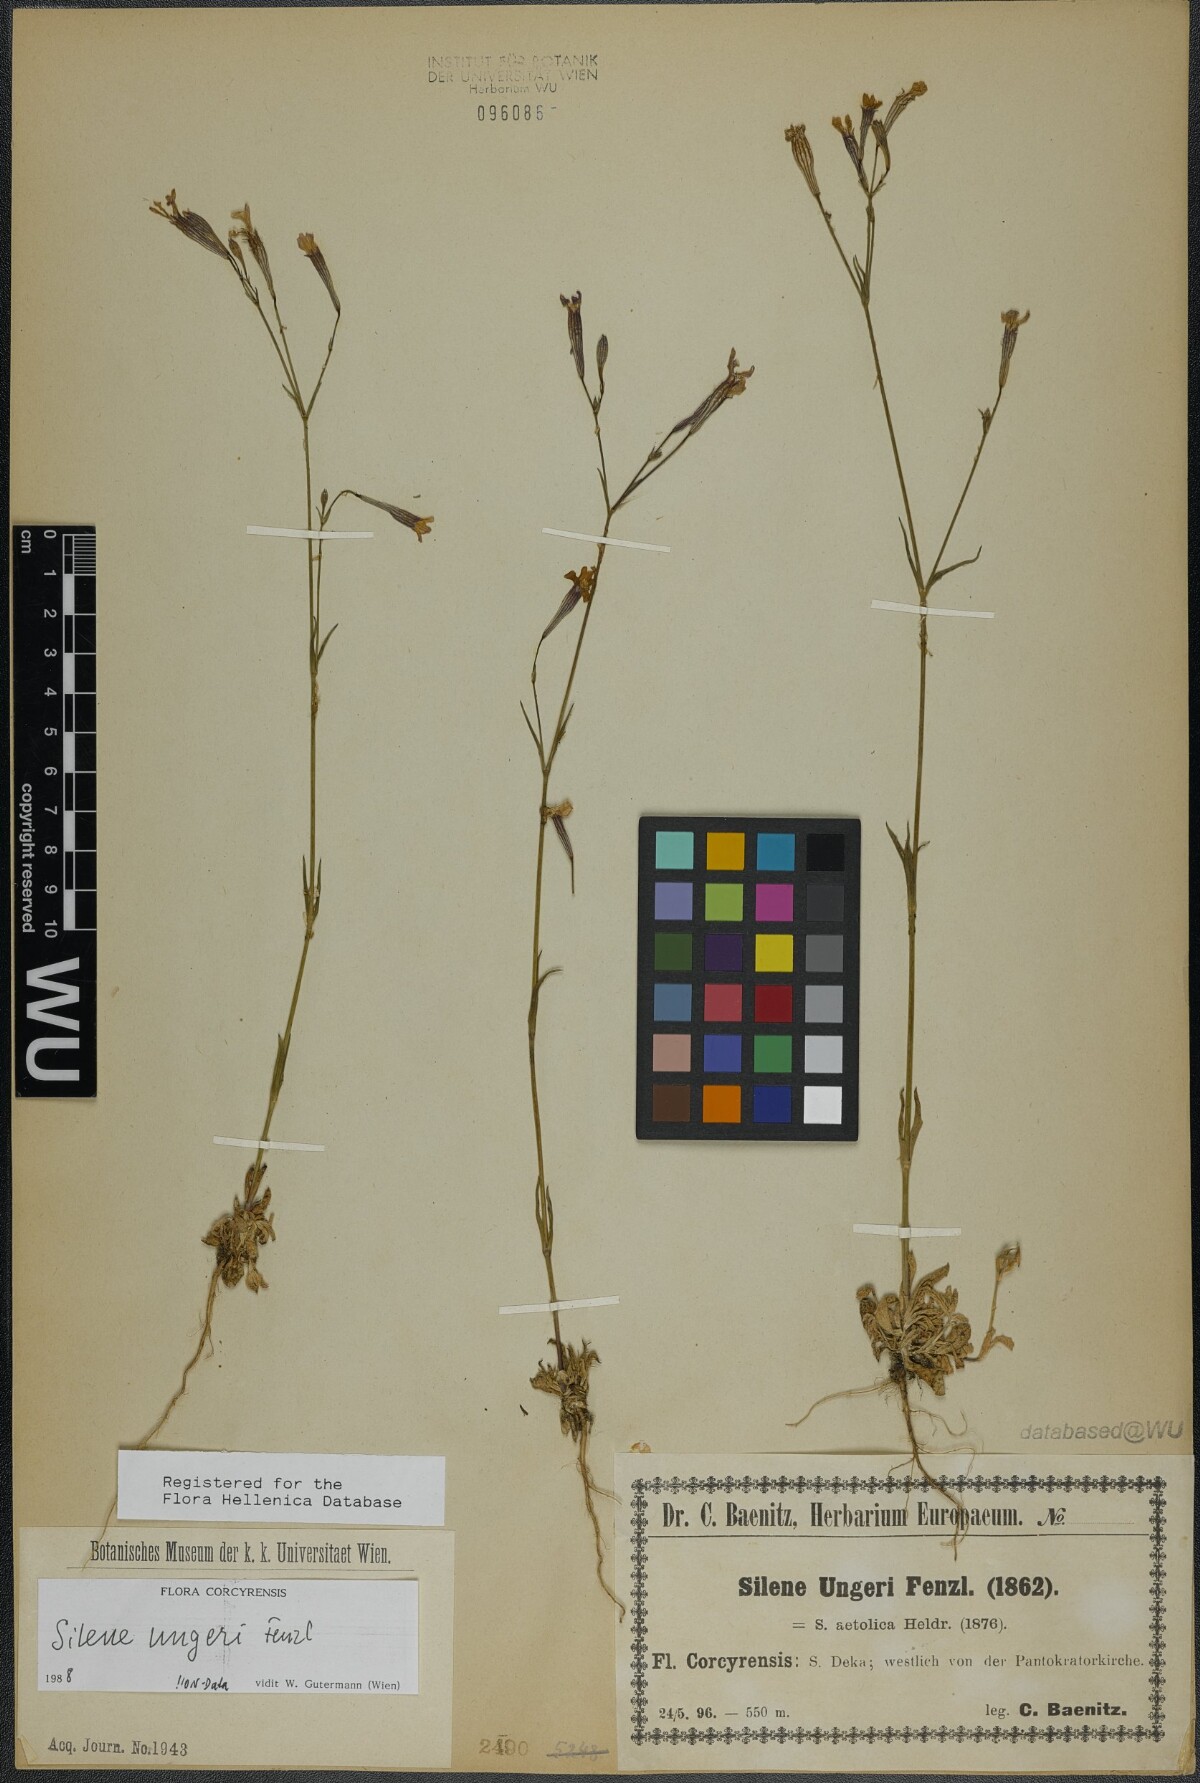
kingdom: Plantae
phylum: Tracheophyta
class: Magnoliopsida
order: Caryophyllales
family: Caryophyllaceae
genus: Silene
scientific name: Silene ungeri
